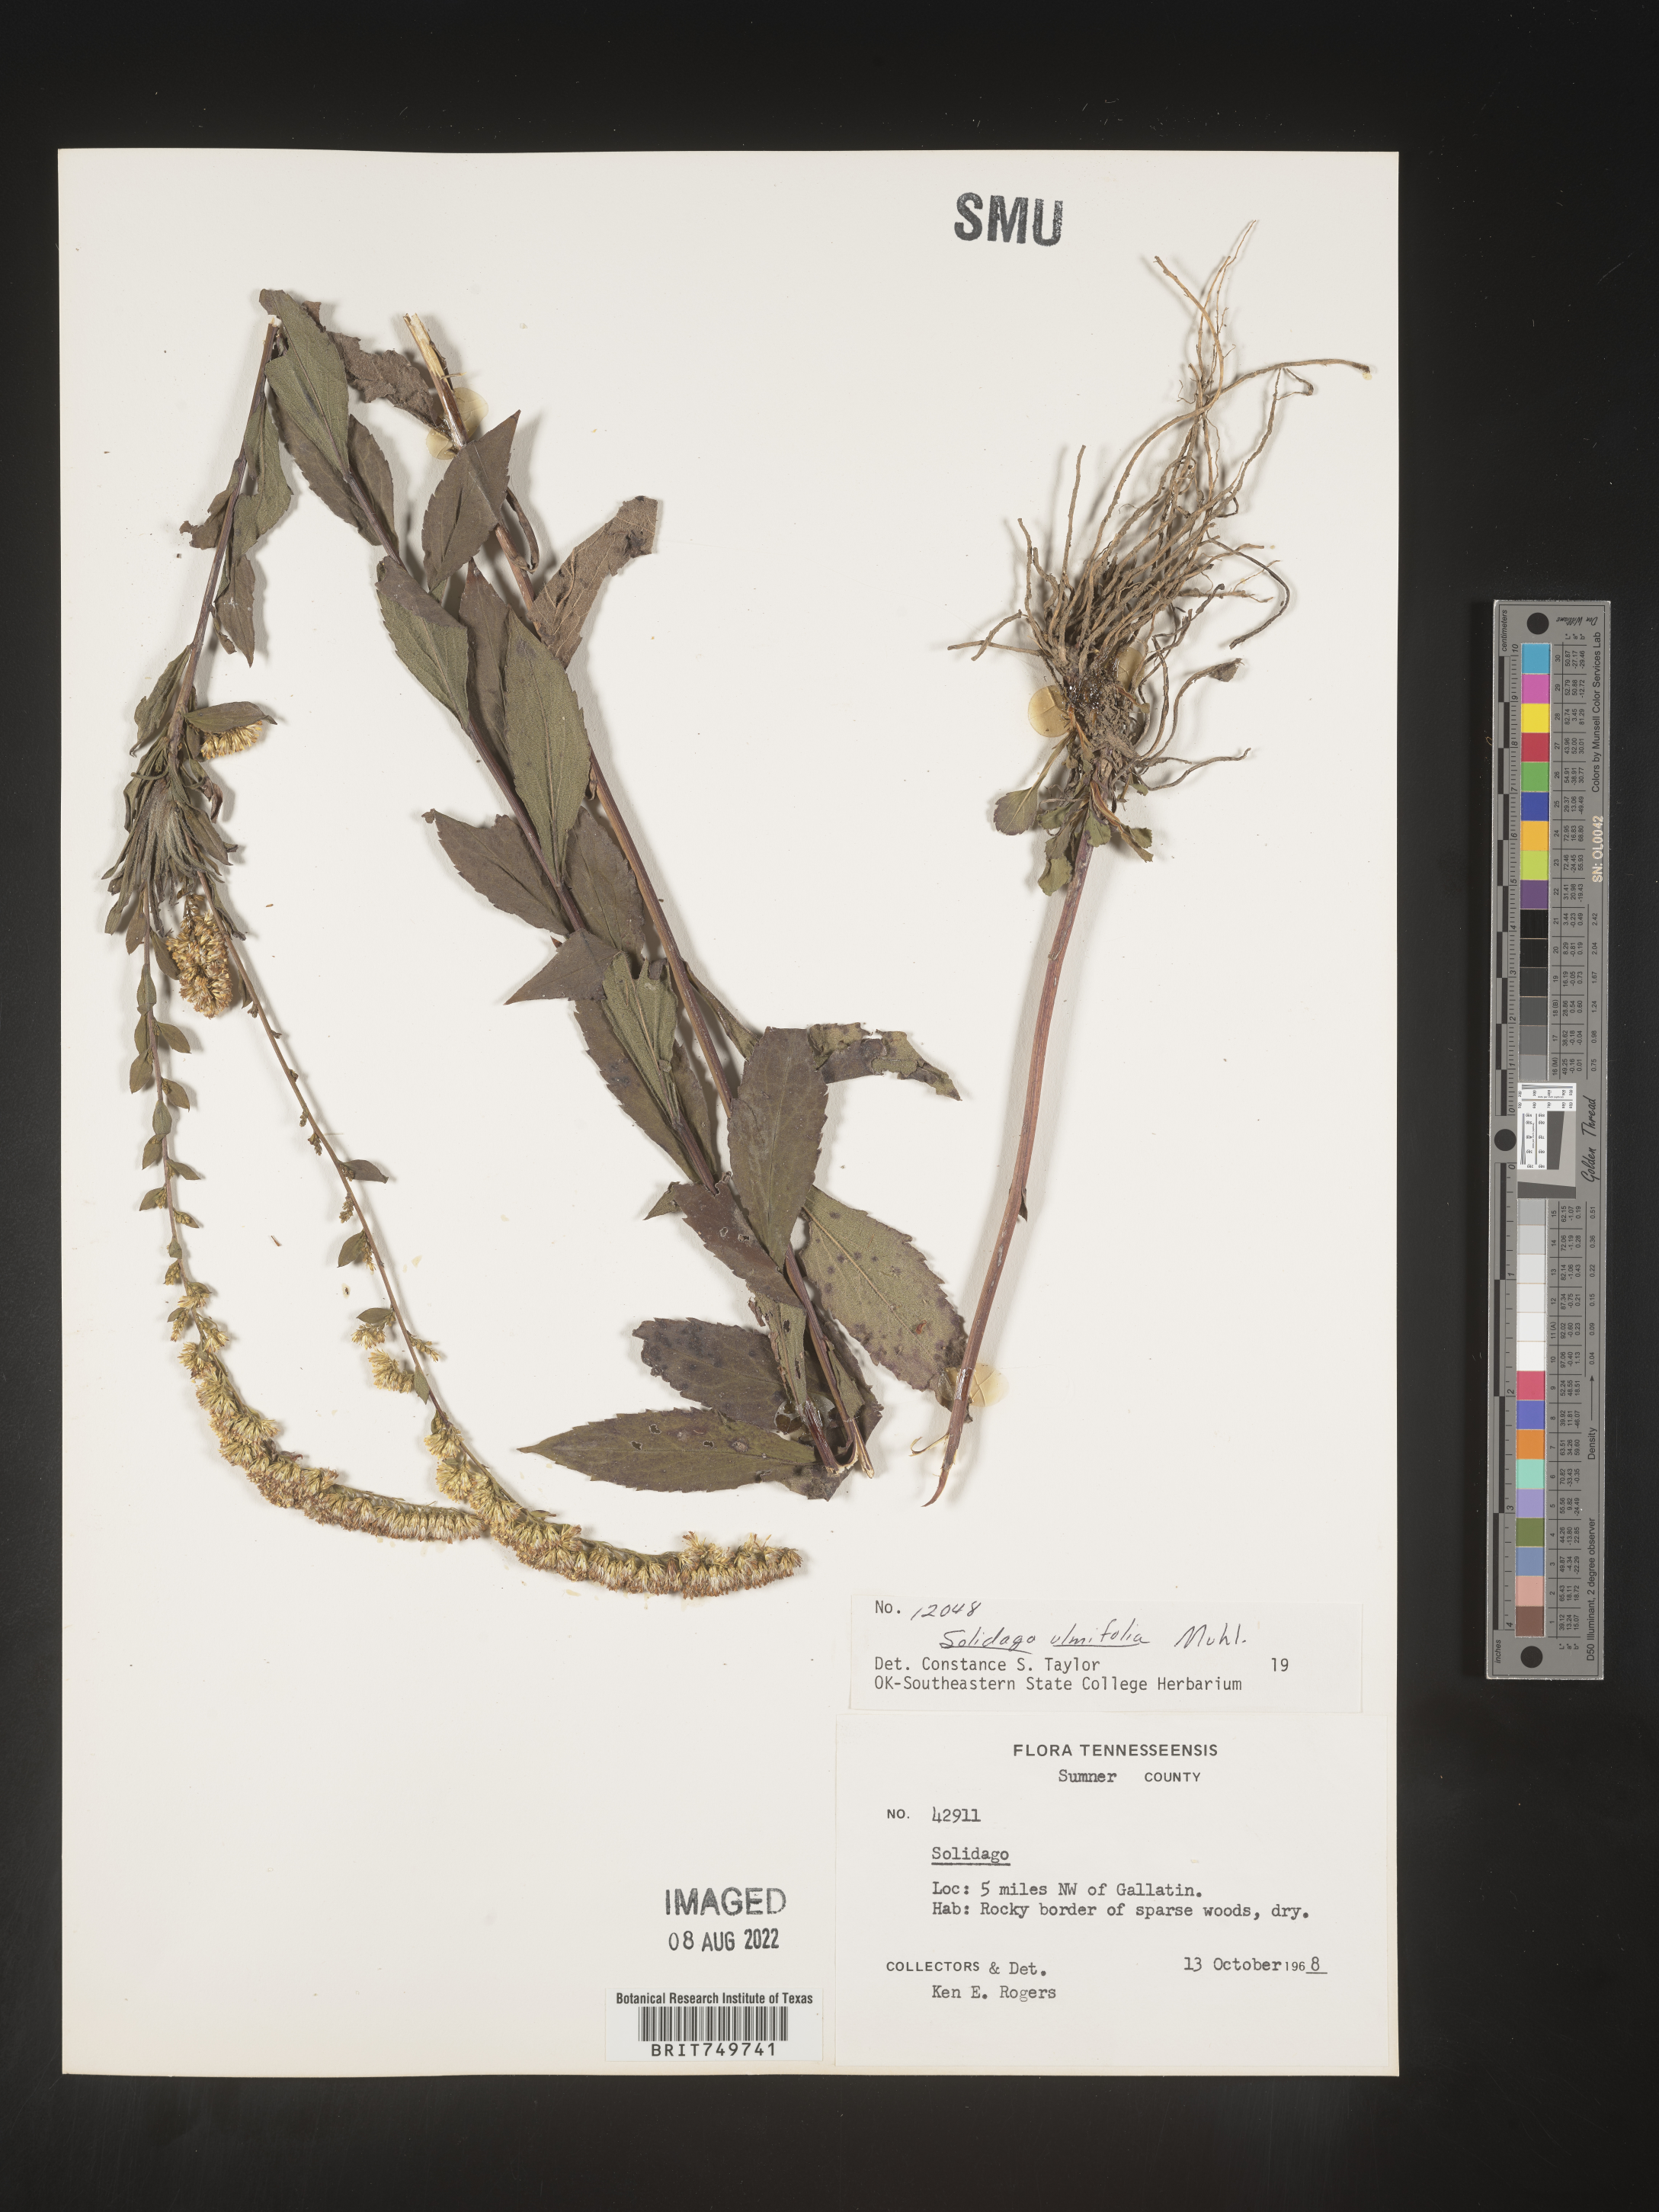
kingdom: Plantae
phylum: Tracheophyta
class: Magnoliopsida
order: Asterales
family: Asteraceae
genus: Solidago
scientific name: Solidago ulmifolia
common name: Elm-leaf goldenrod
